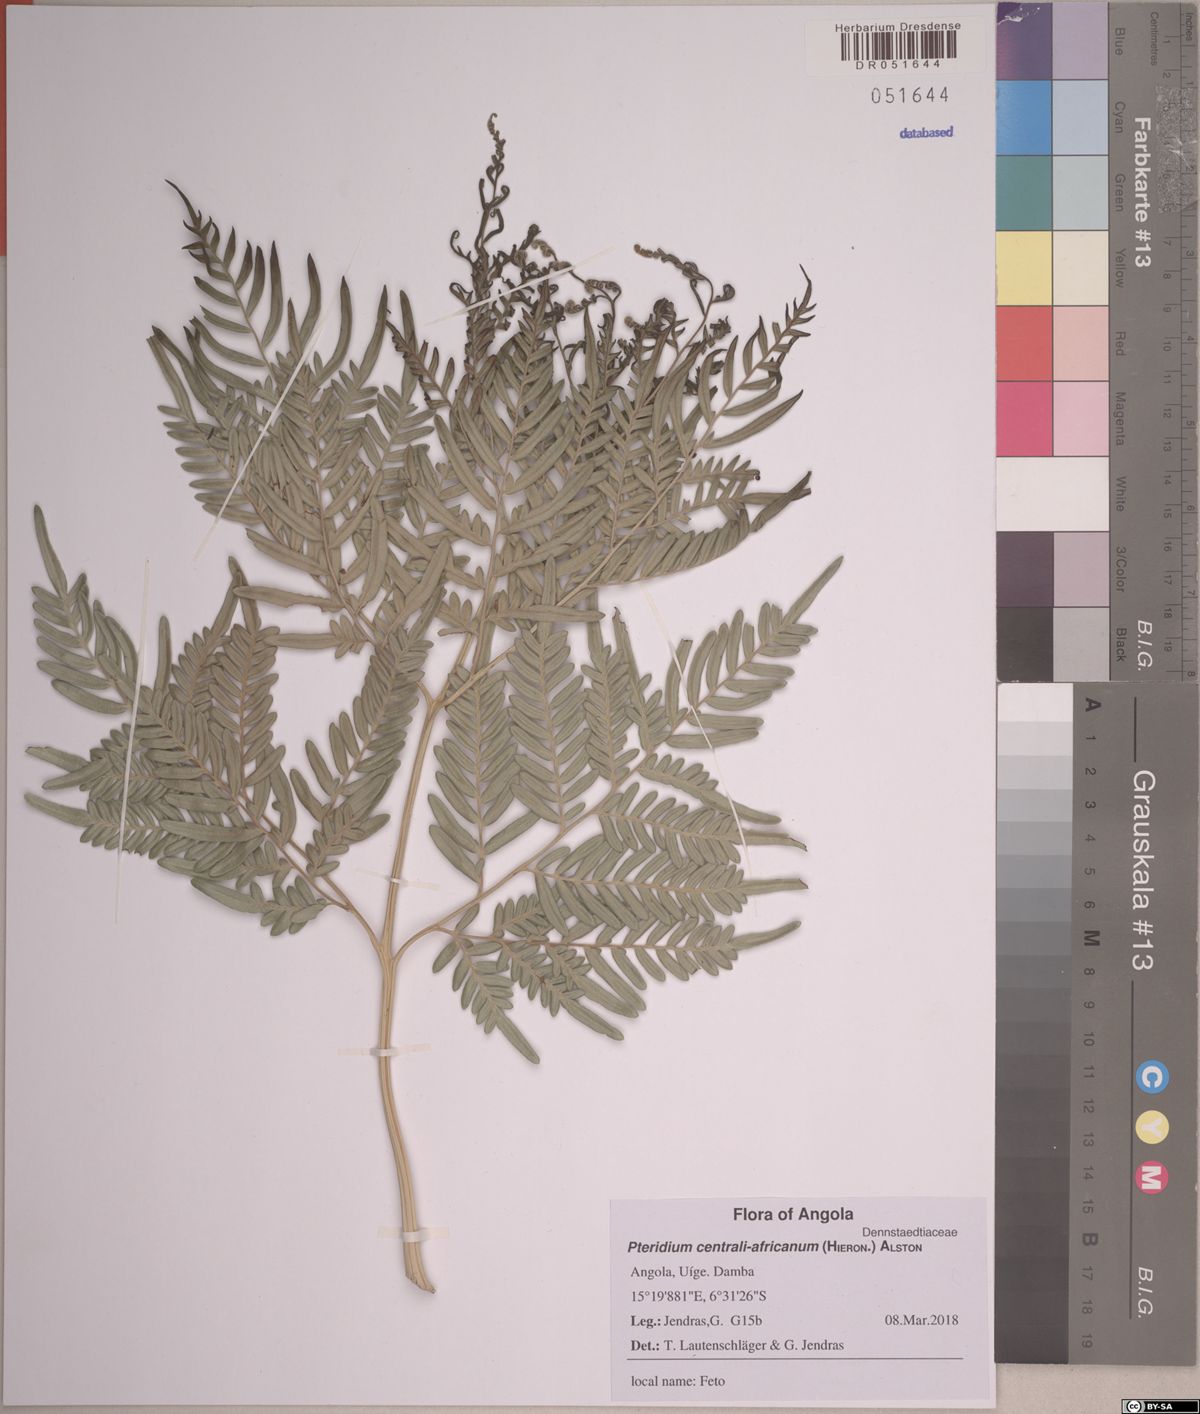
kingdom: Plantae
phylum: Tracheophyta
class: Polypodiopsida
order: Polypodiales
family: Dennstaedtiaceae
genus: Pteridium
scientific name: Pteridium aquilinum
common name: Bracken
